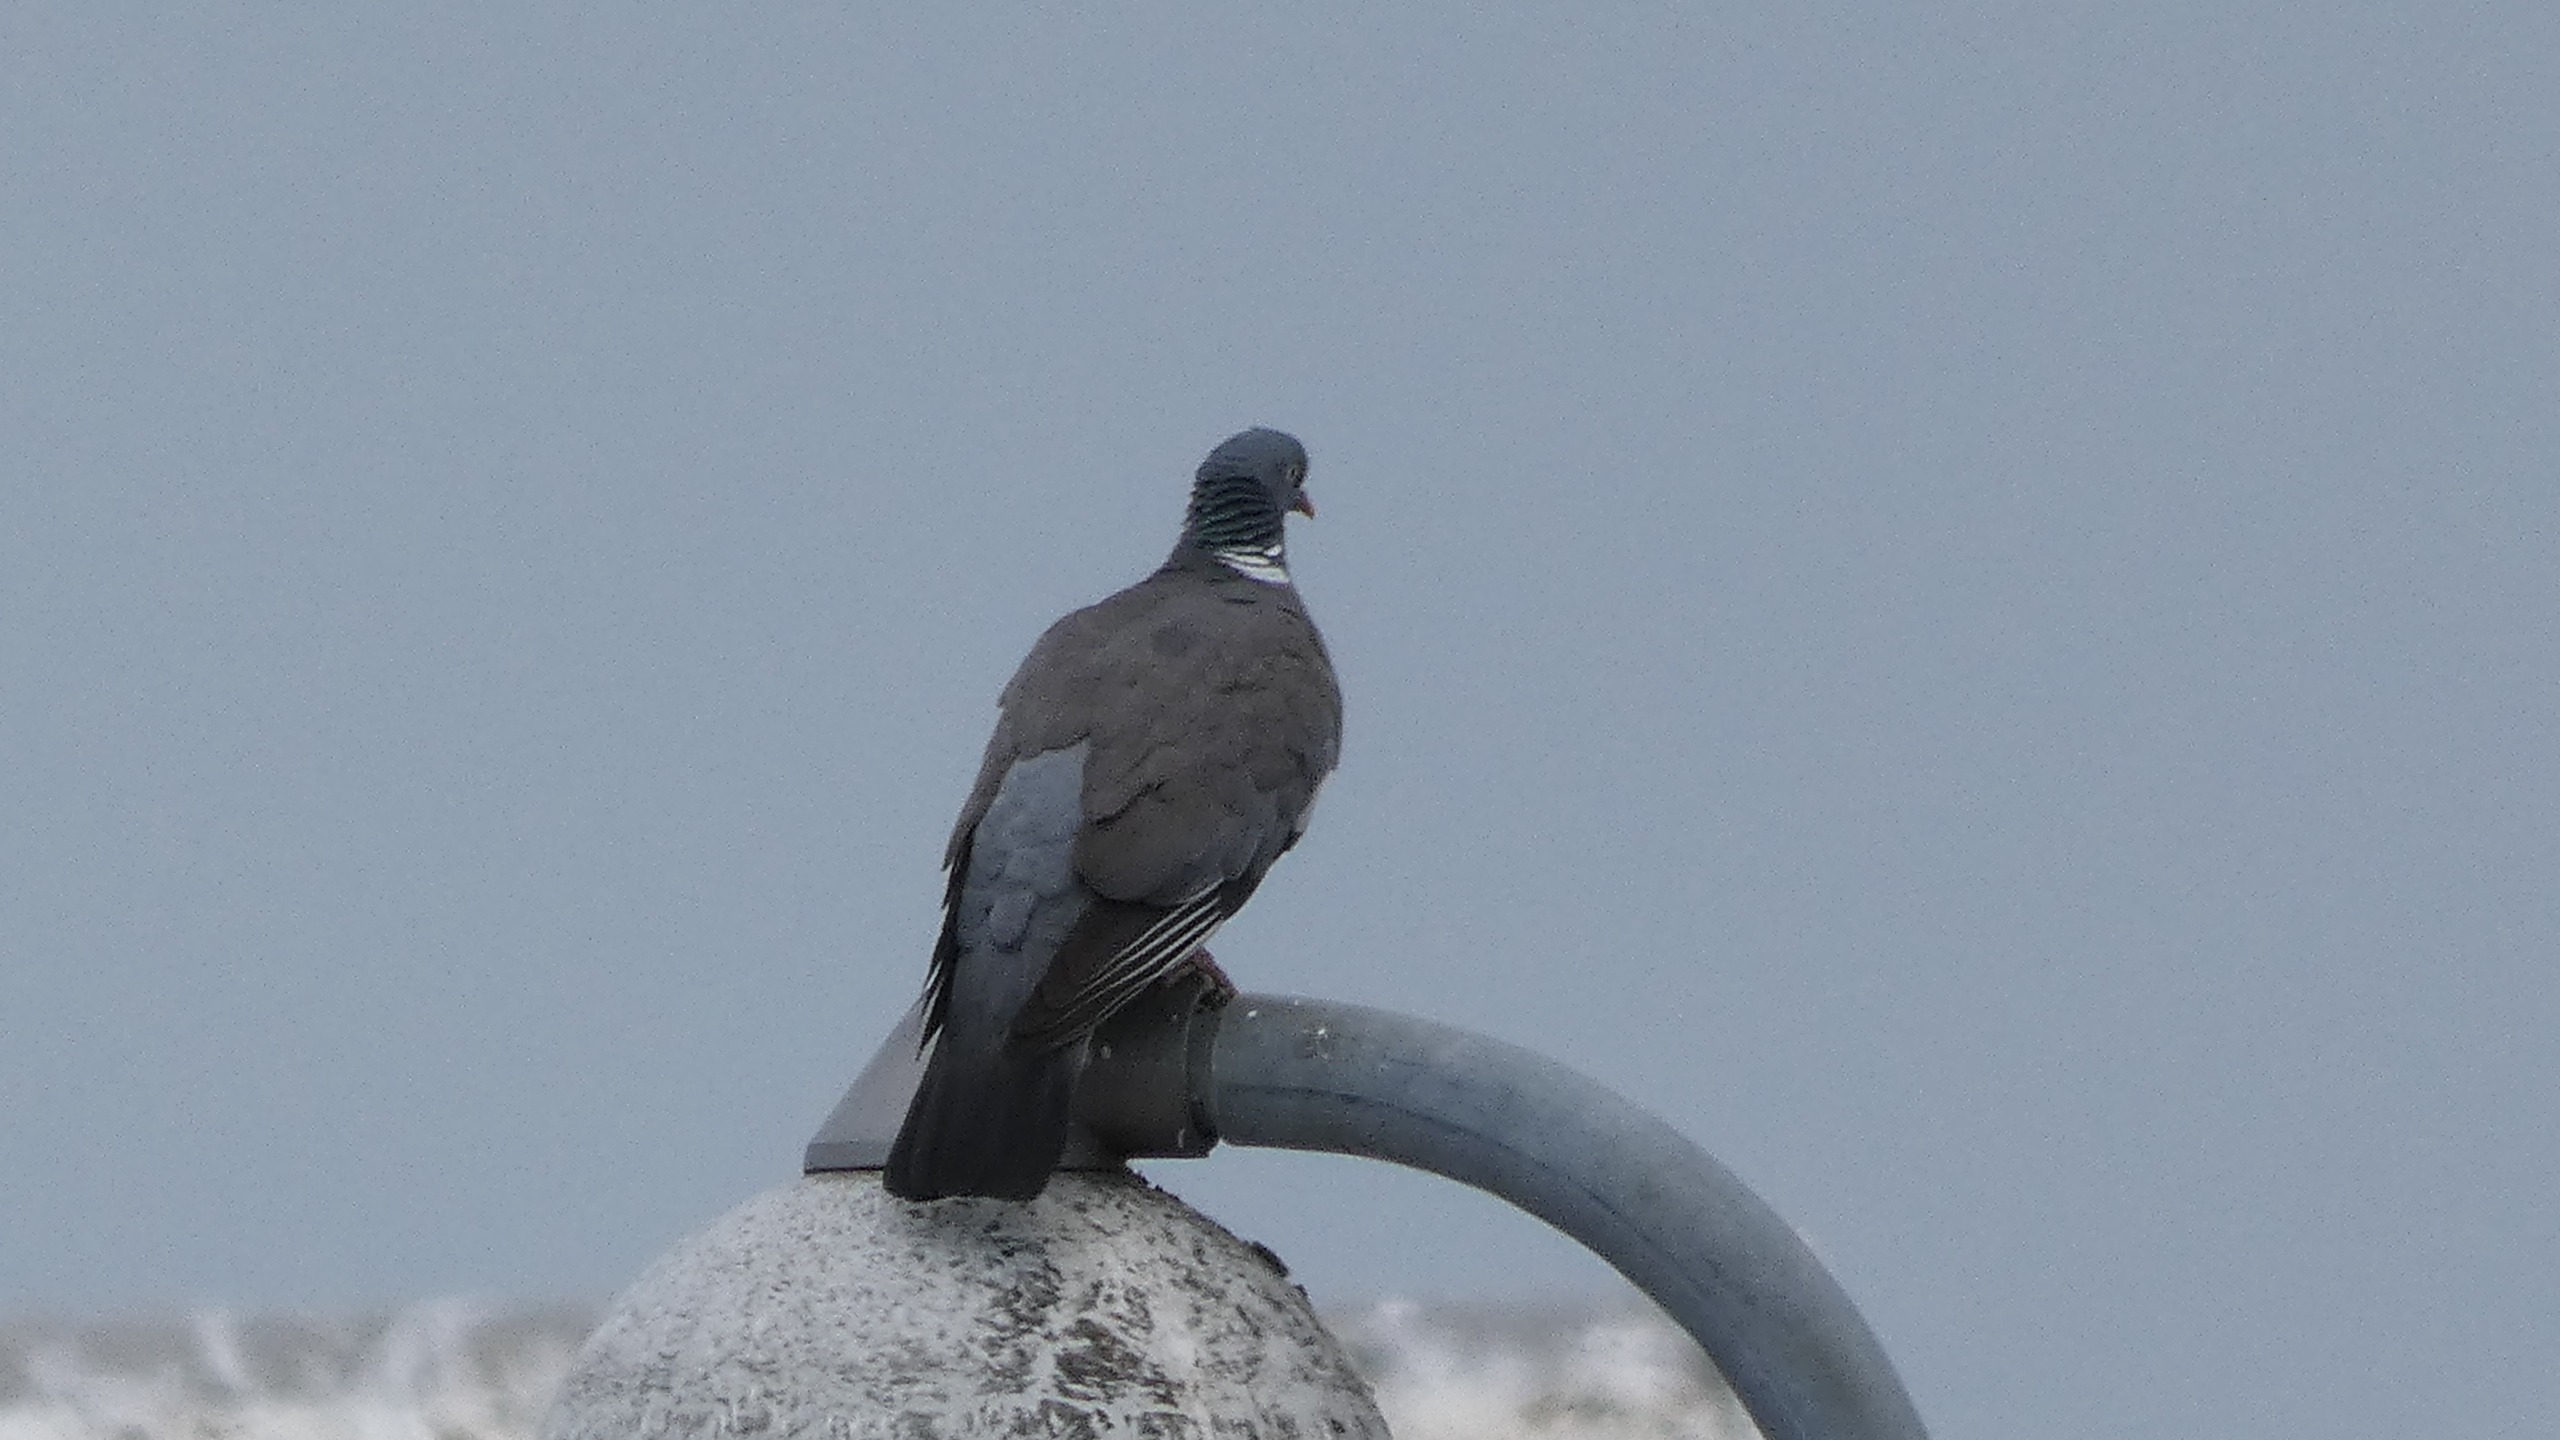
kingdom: Animalia
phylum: Chordata
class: Aves
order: Columbiformes
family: Columbidae
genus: Columba
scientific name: Columba palumbus
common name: Ringdue
